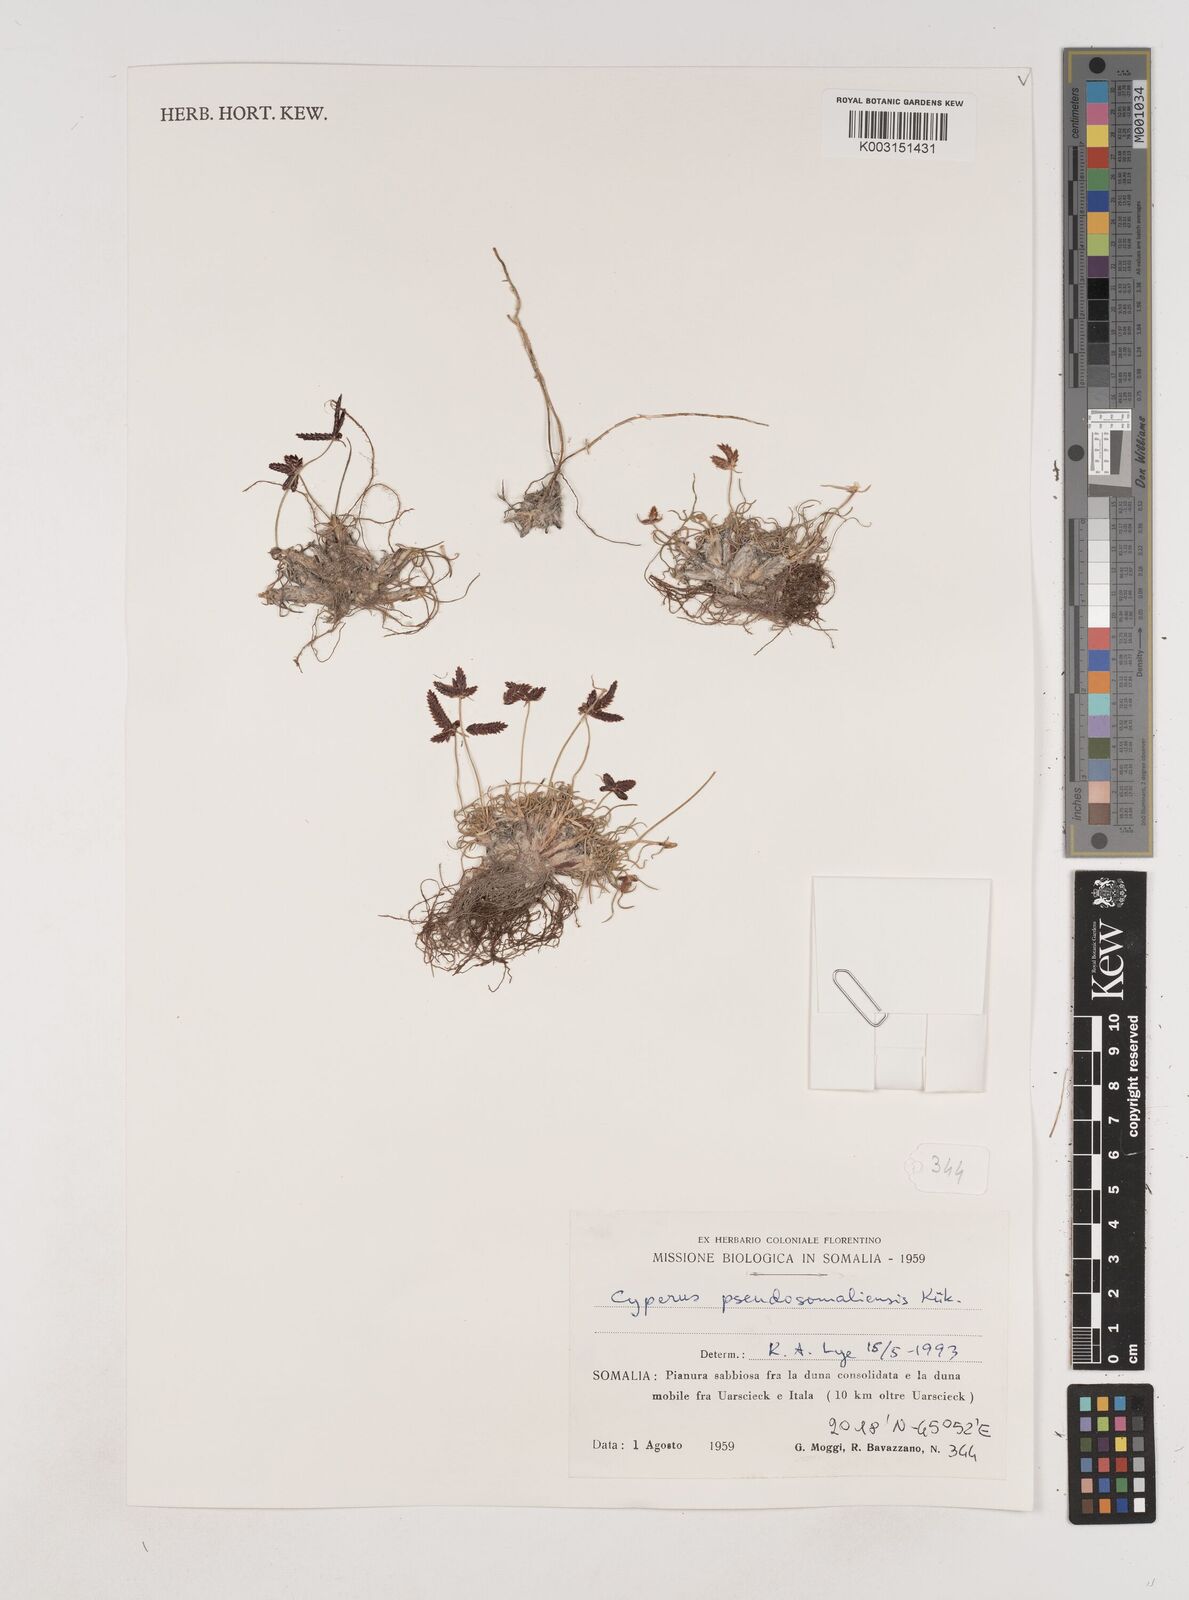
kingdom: Plantae
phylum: Tracheophyta
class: Liliopsida
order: Poales
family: Cyperaceae
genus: Cyperus
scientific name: Cyperus pseudosomaliensis
